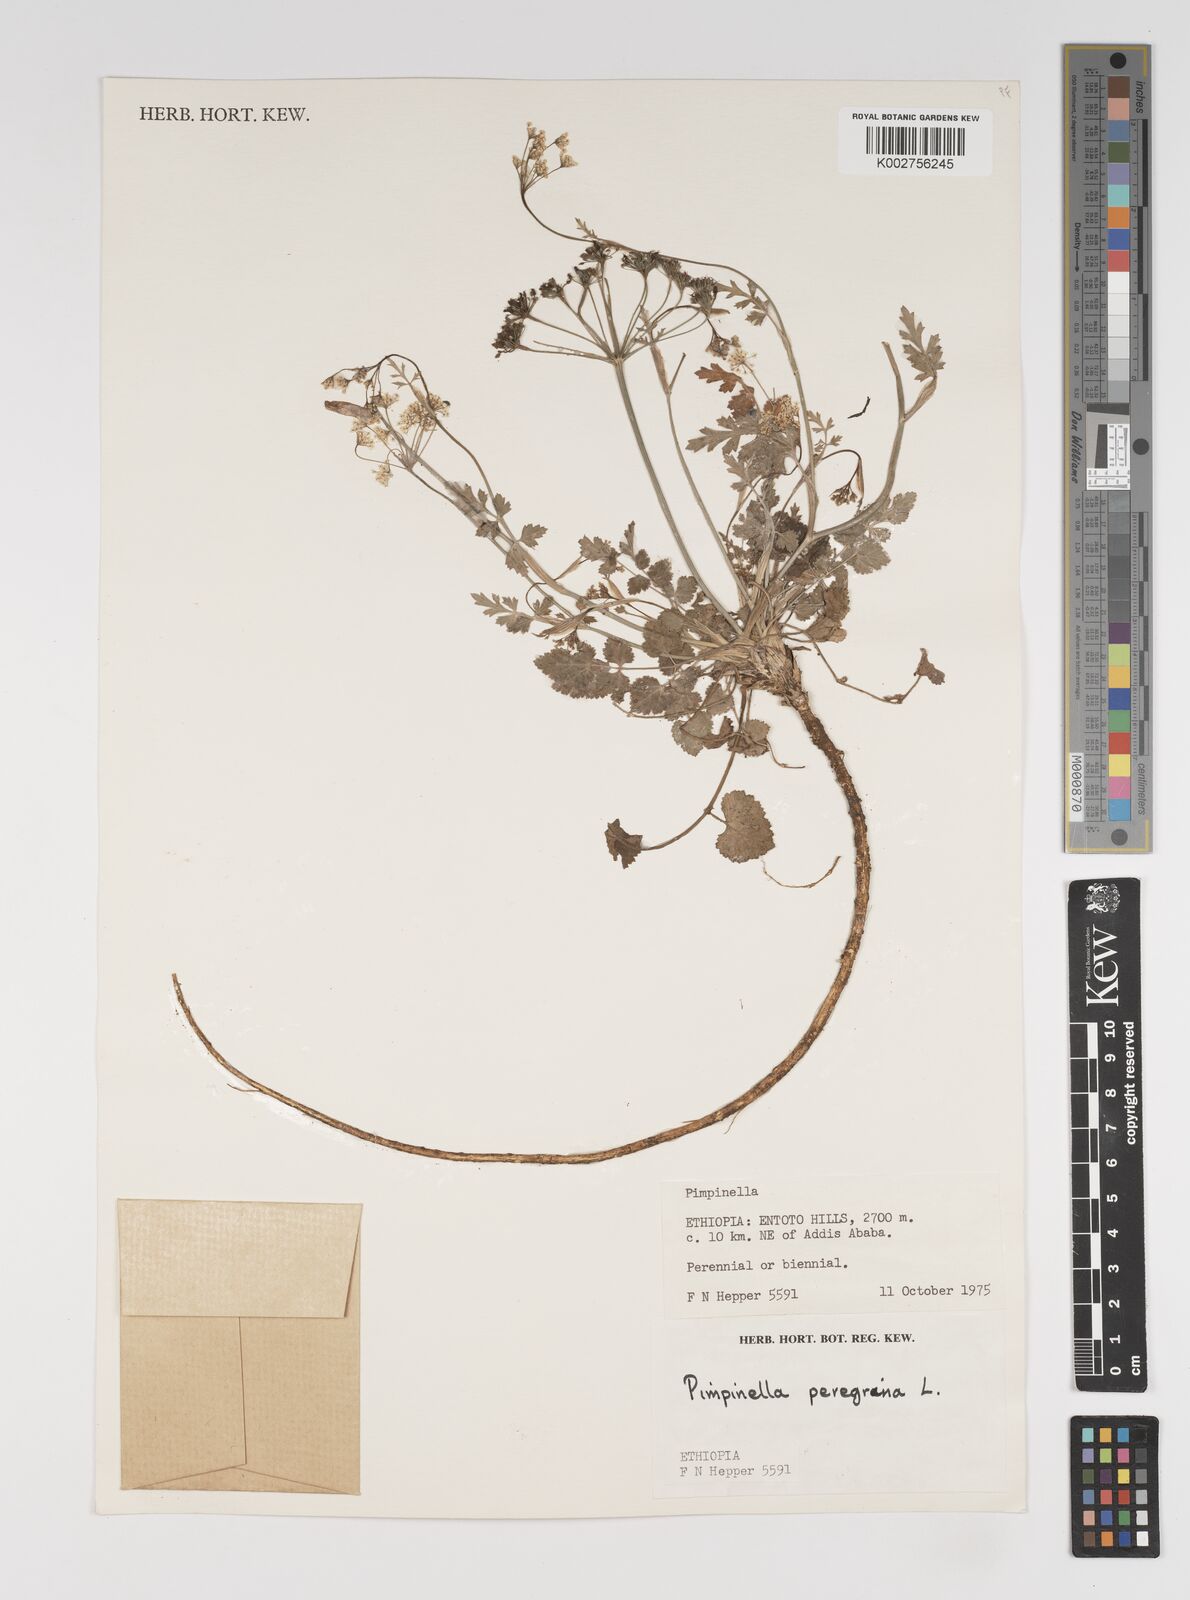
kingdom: Plantae
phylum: Tracheophyta
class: Magnoliopsida
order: Apiales
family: Apiaceae
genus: Pimpinella
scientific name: Pimpinella hirtella
